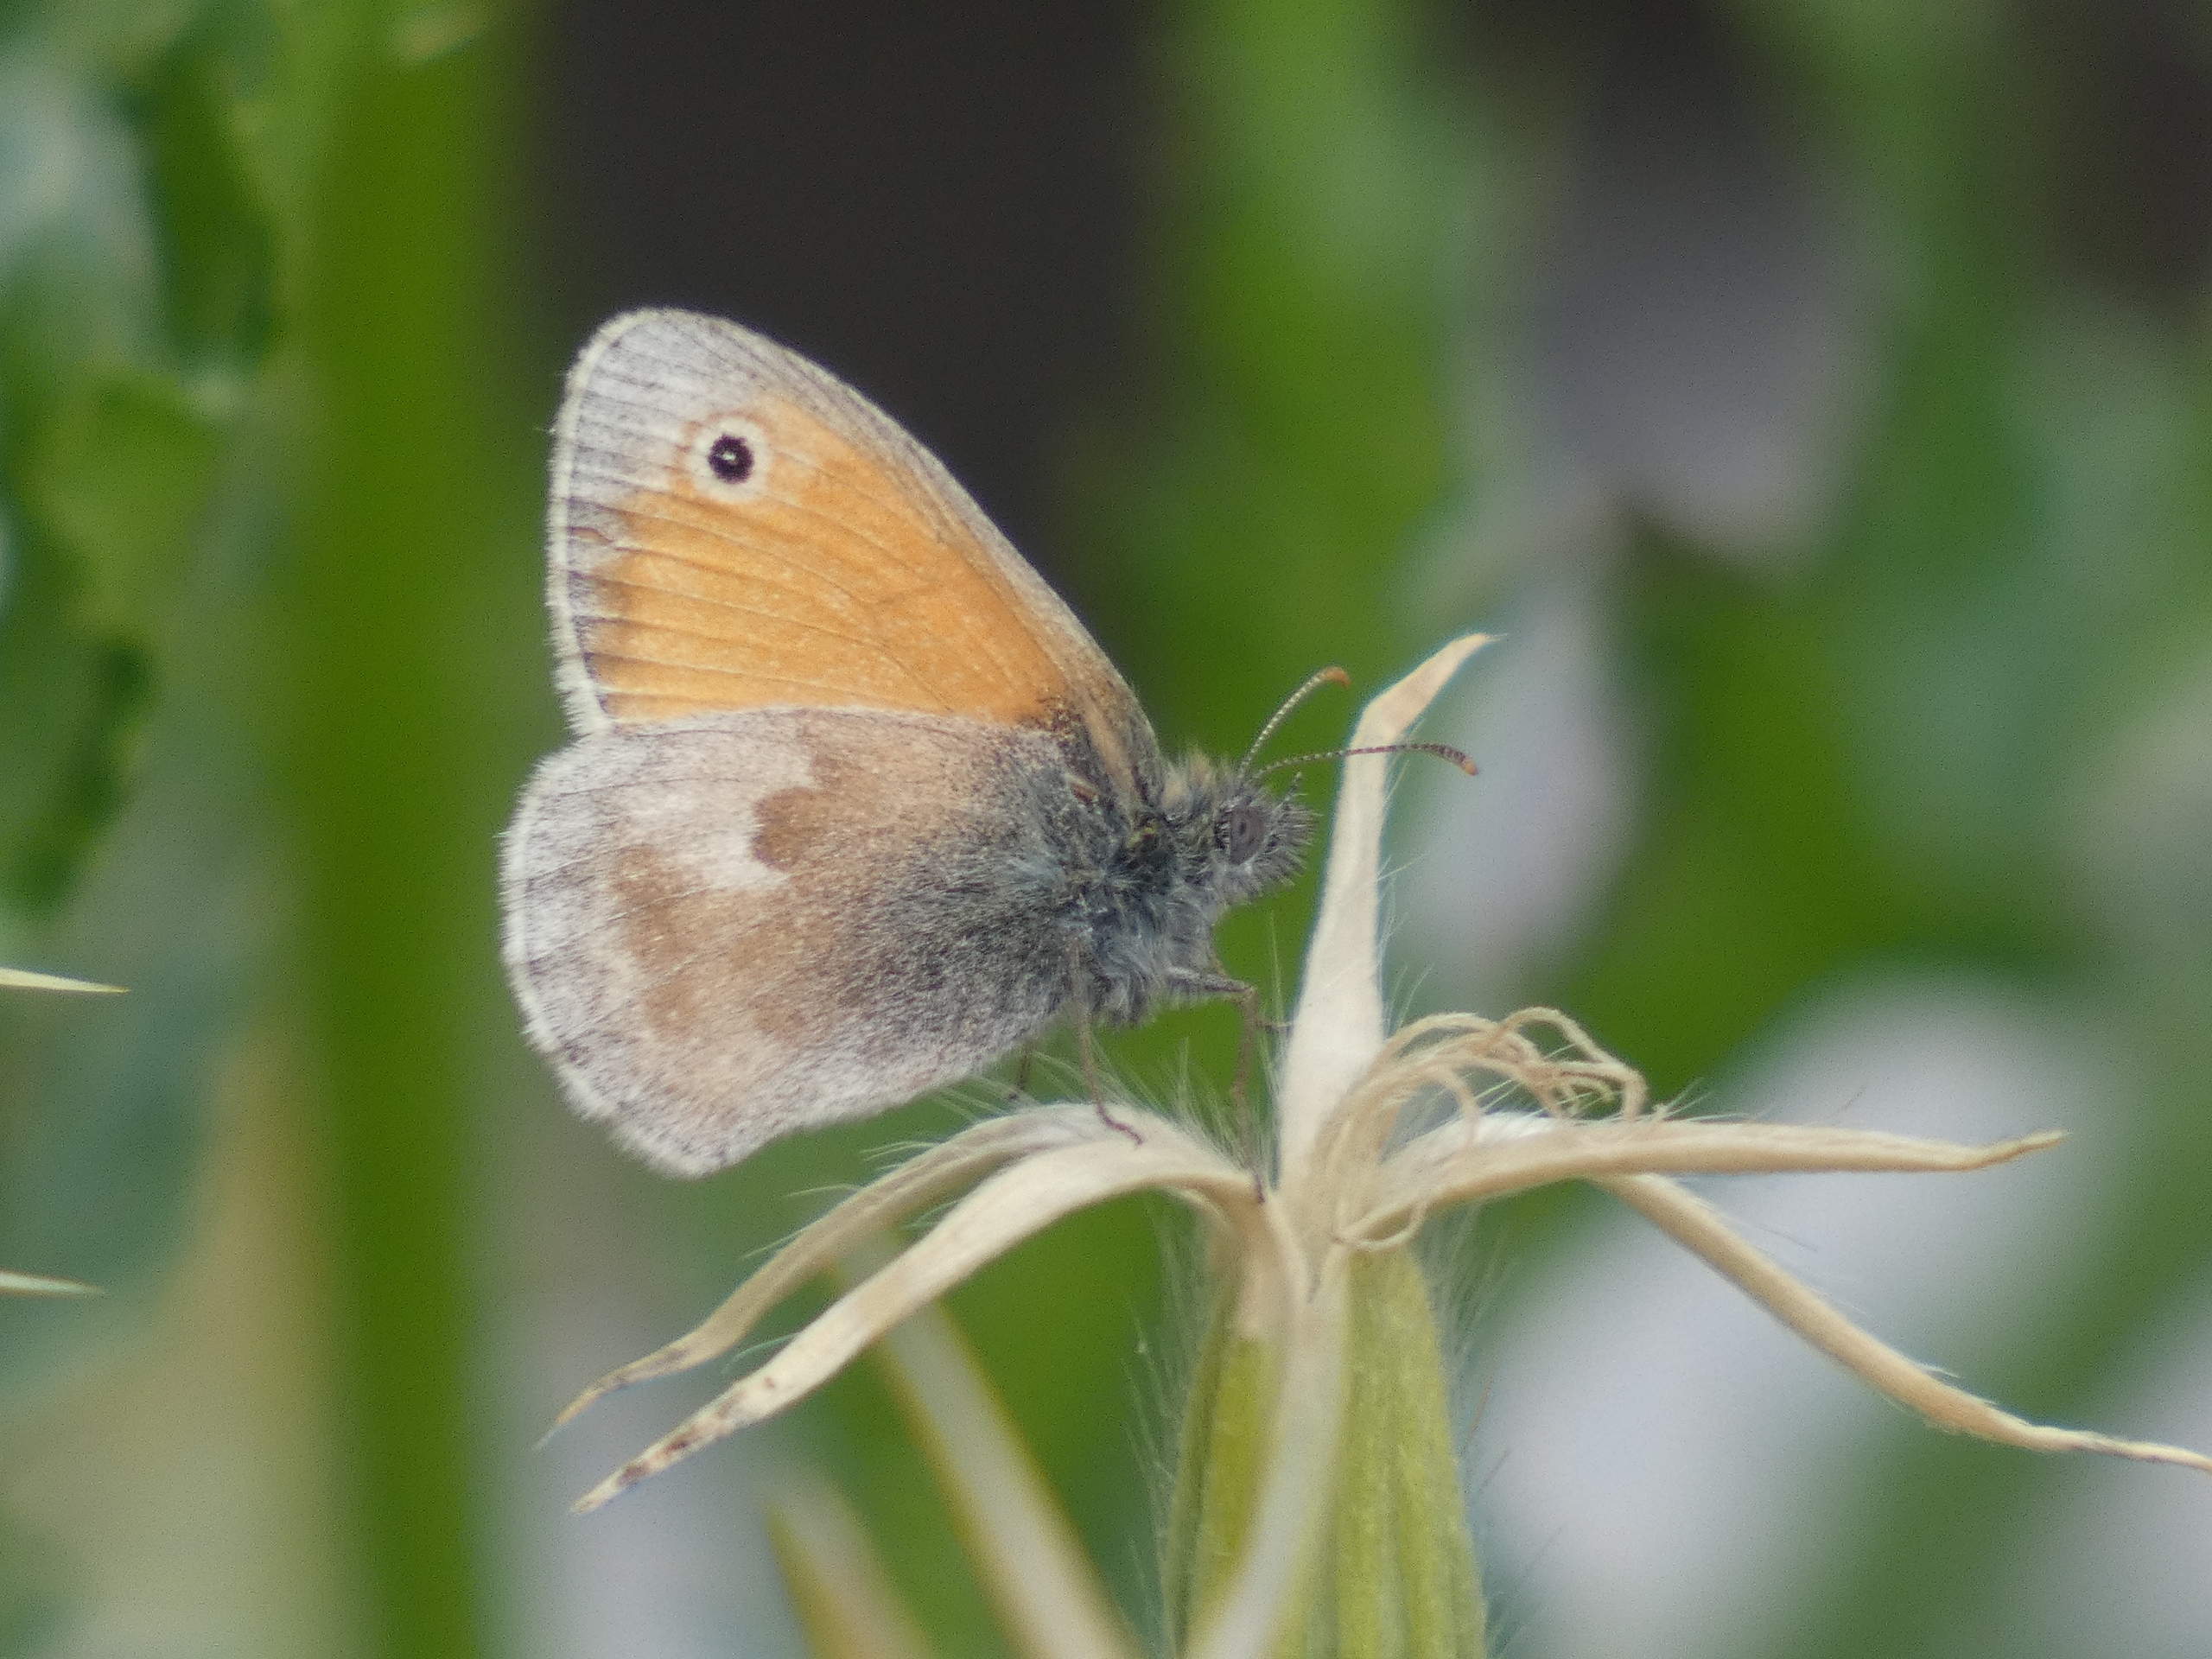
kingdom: Animalia
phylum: Arthropoda
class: Insecta
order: Lepidoptera
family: Nymphalidae
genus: Coenonympha
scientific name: Coenonympha pamphilus
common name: Okkergul randøje
